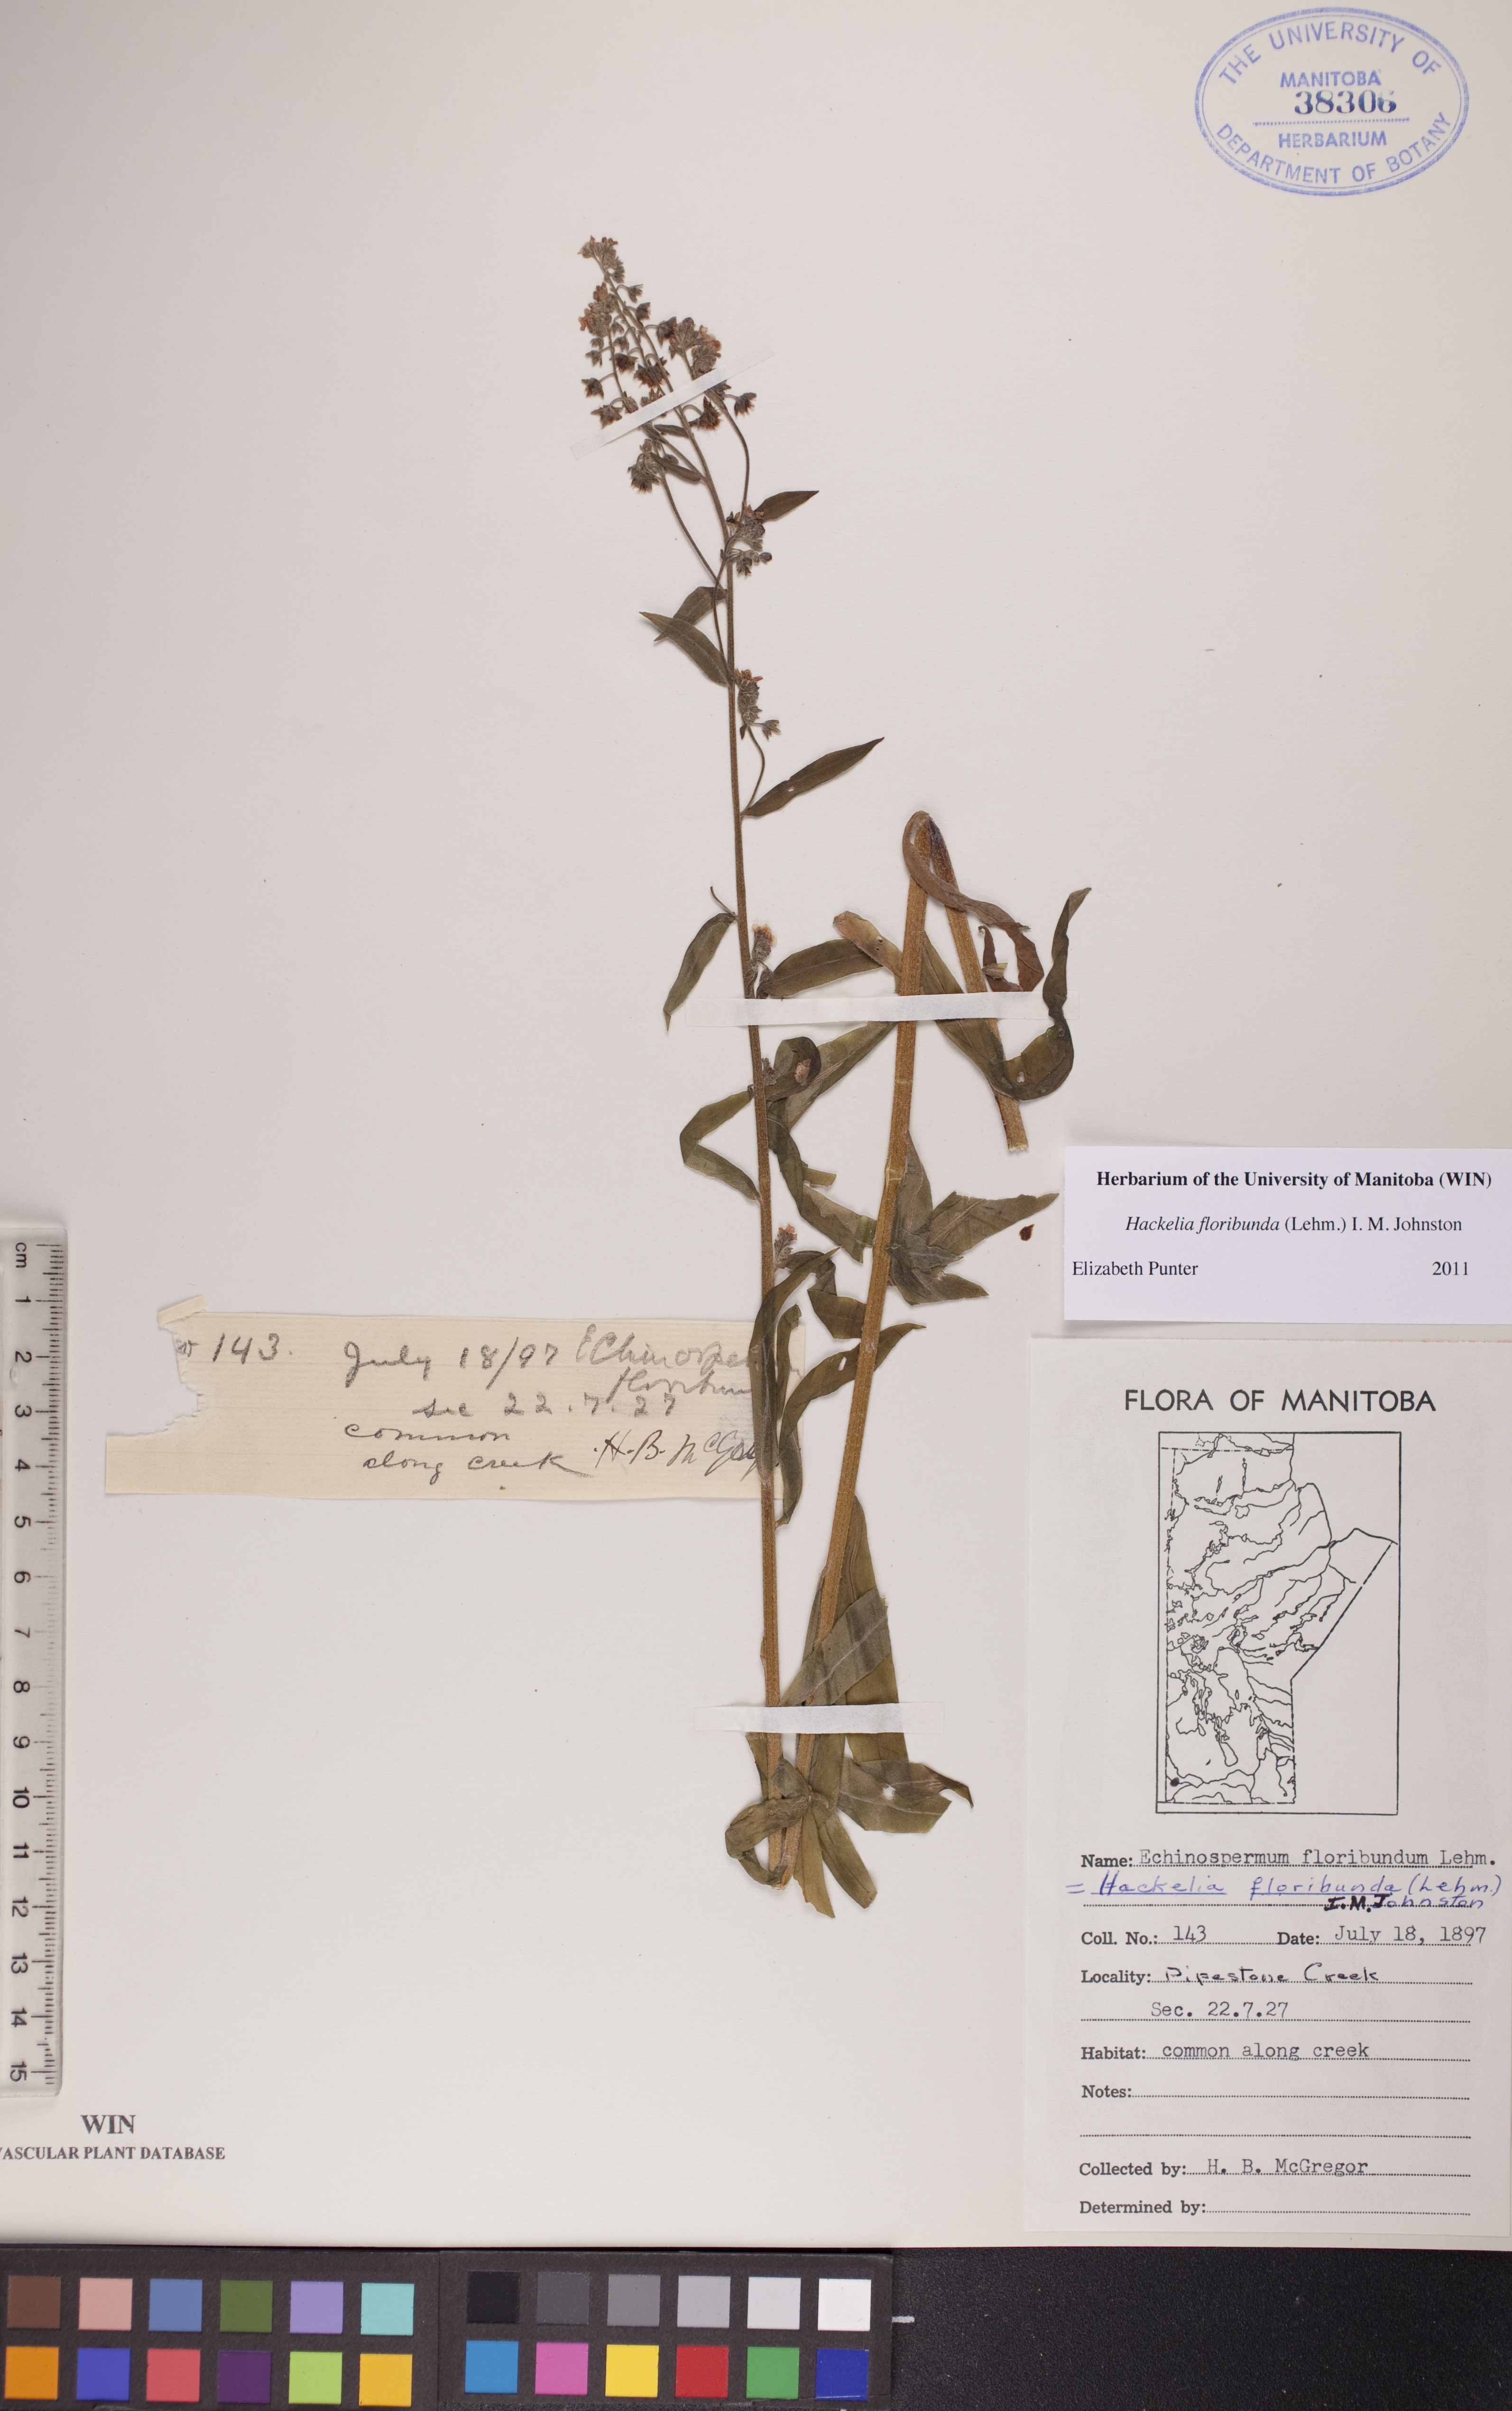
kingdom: Plantae
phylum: Tracheophyta
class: Magnoliopsida
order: Boraginales
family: Boraginaceae
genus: Hackelia
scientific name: Hackelia floribunda
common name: Large-flowered stickseed
